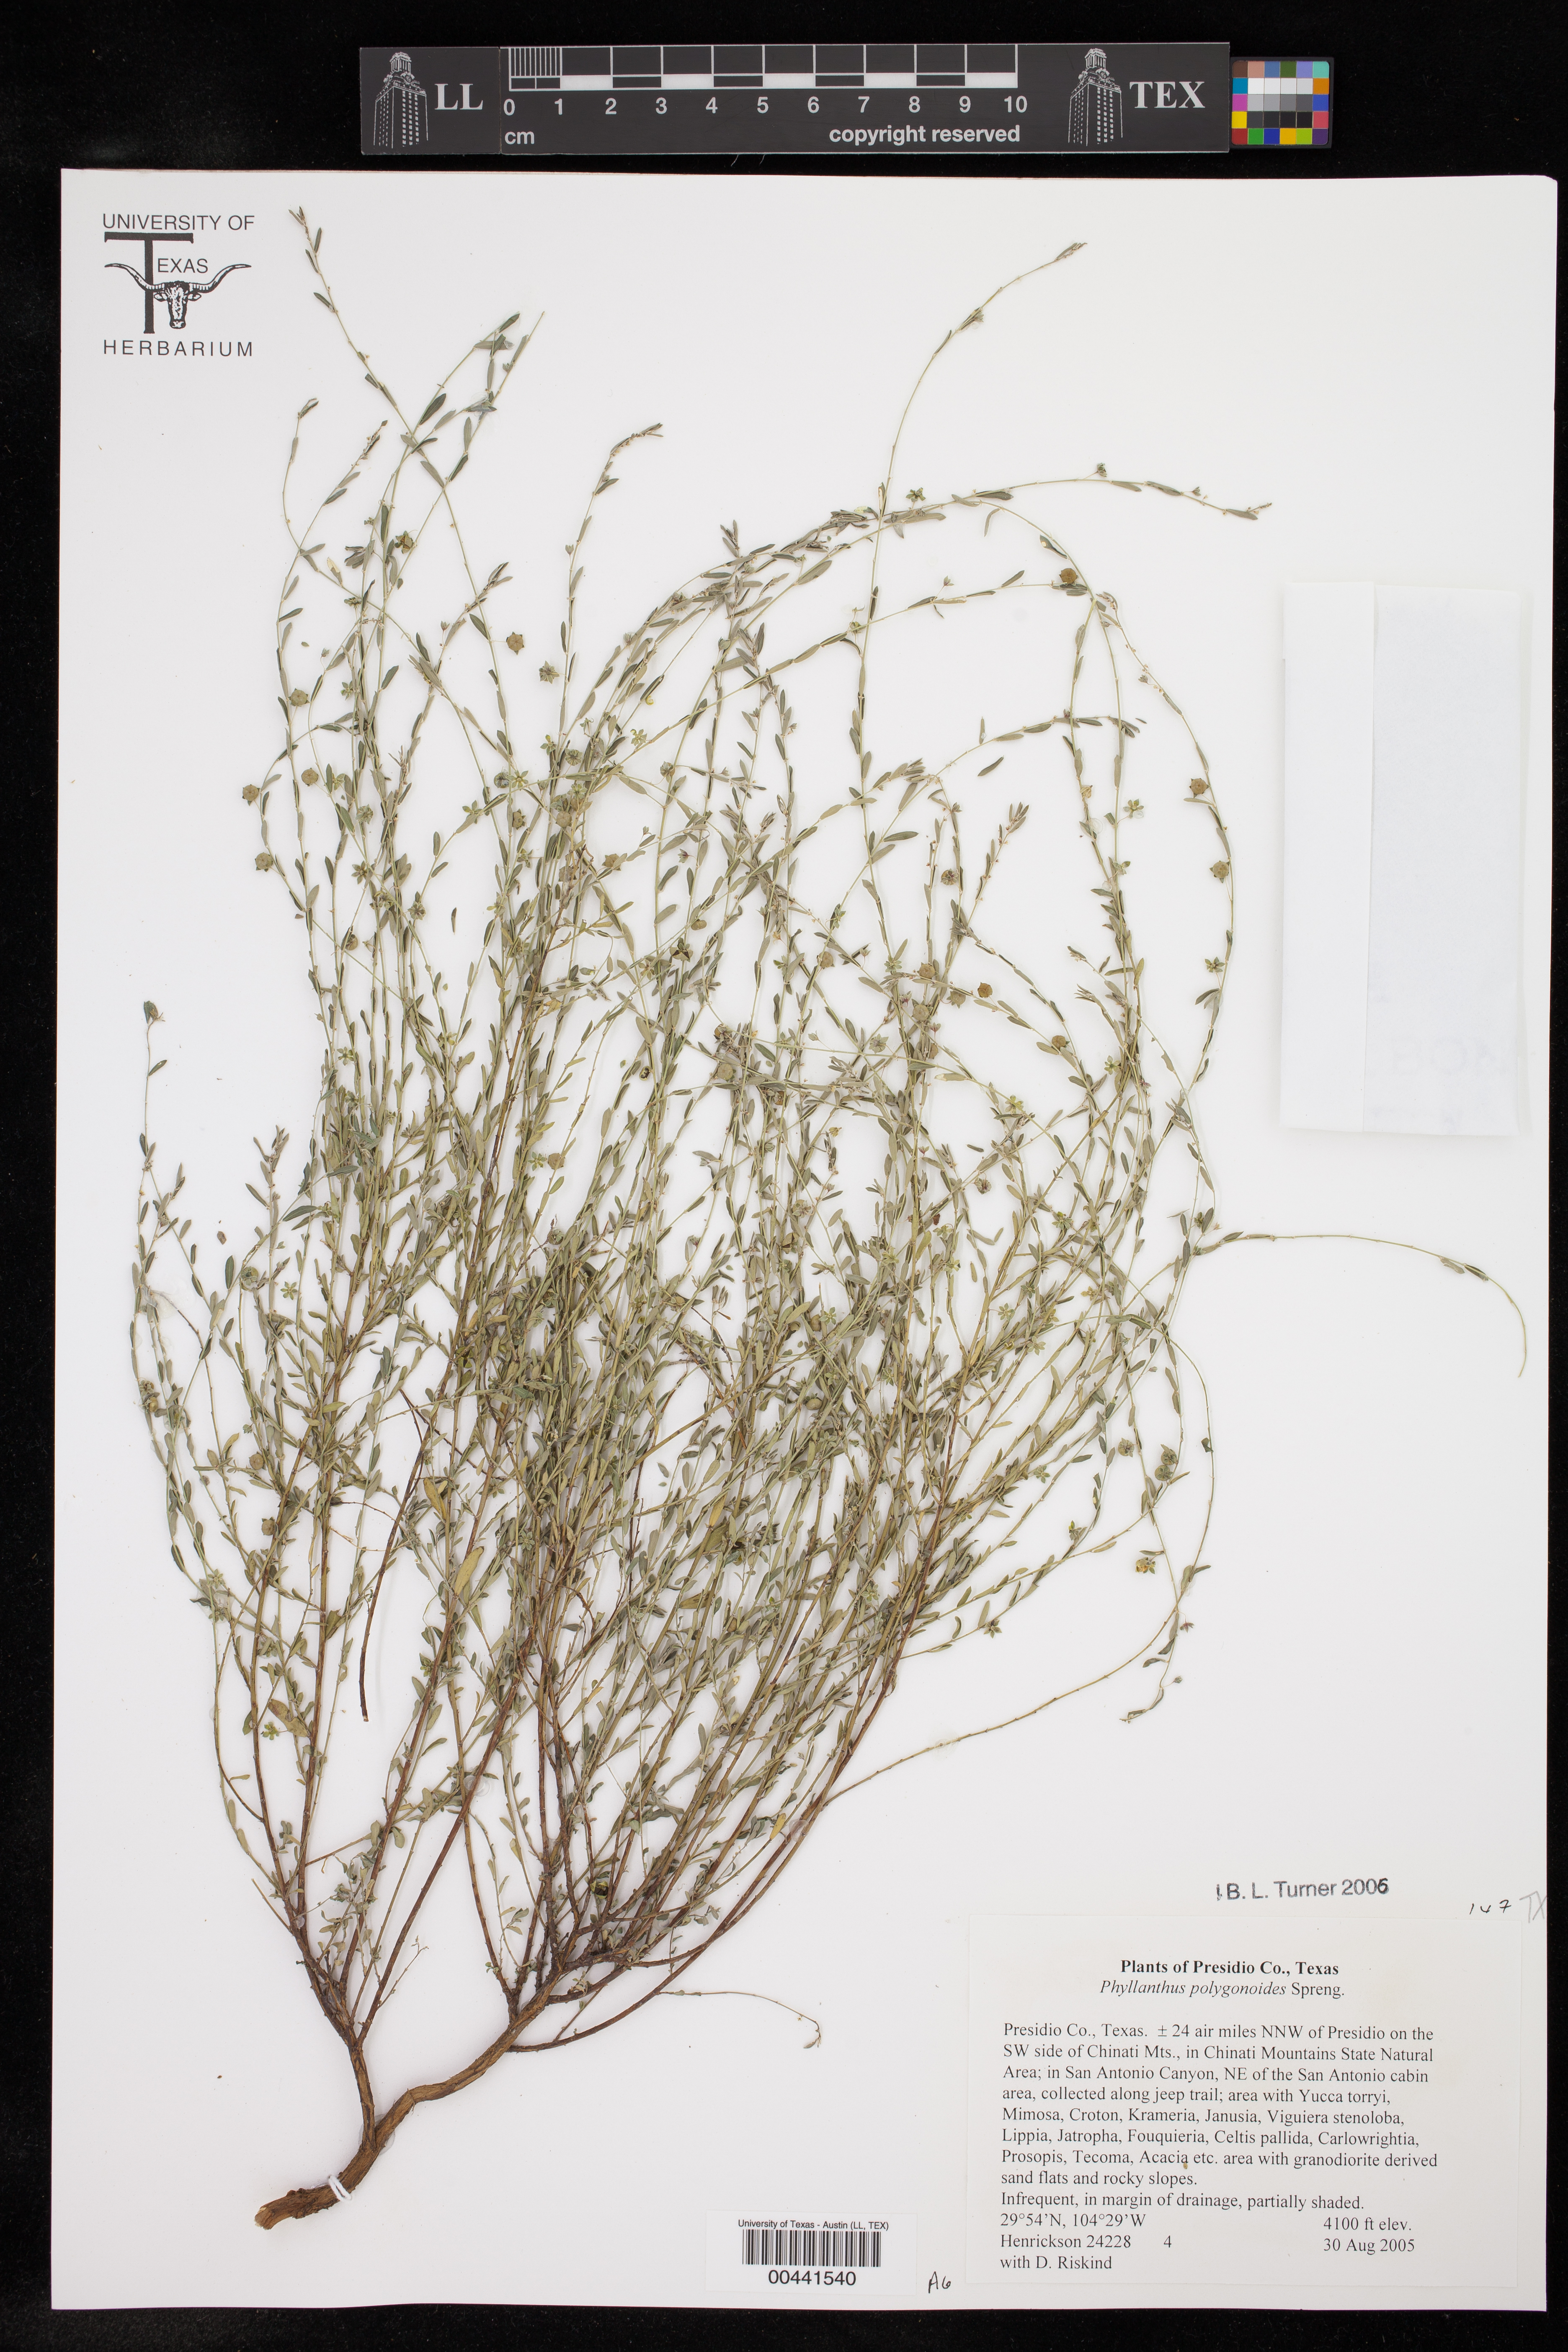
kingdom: Plantae
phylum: Tracheophyta
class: Magnoliopsida
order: Malpighiales
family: Phyllanthaceae
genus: Phyllanthus
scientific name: Phyllanthus polygonoides
